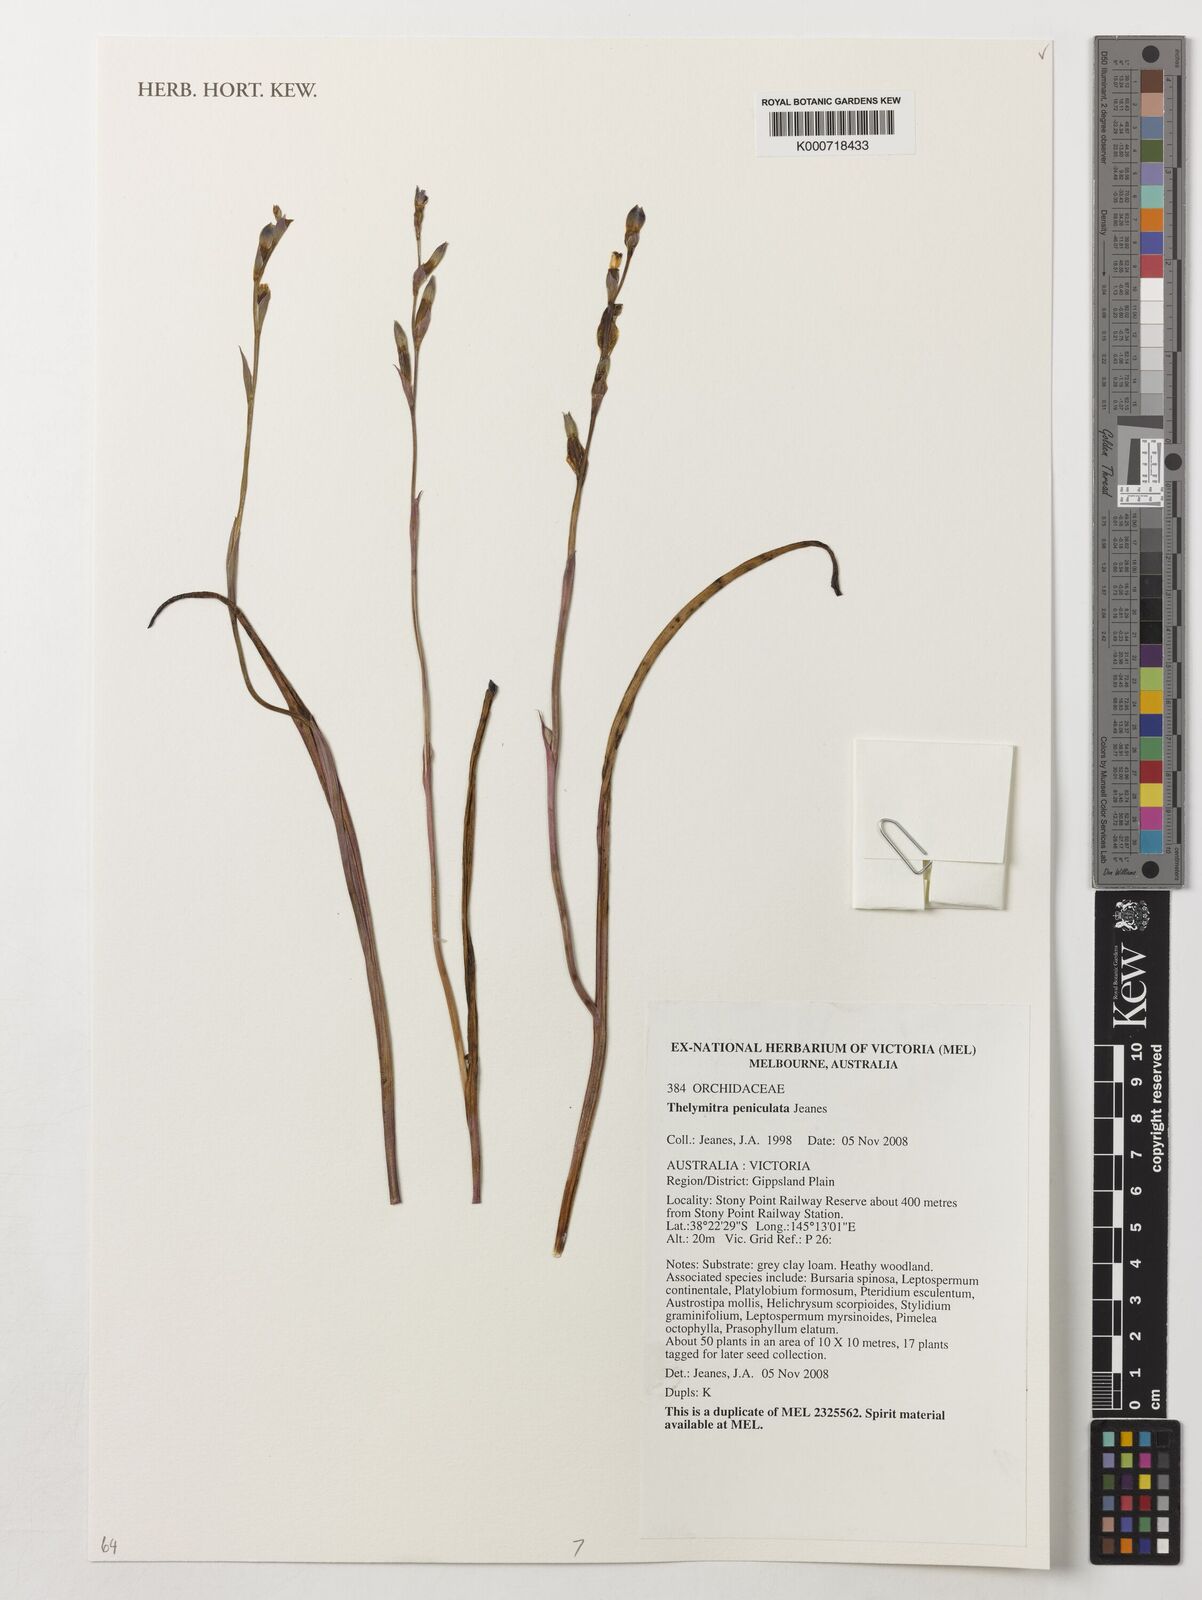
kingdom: Plantae
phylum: Tracheophyta
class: Liliopsida
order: Asparagales
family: Orchidaceae
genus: Thelymitra
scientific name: Thelymitra peniculata
